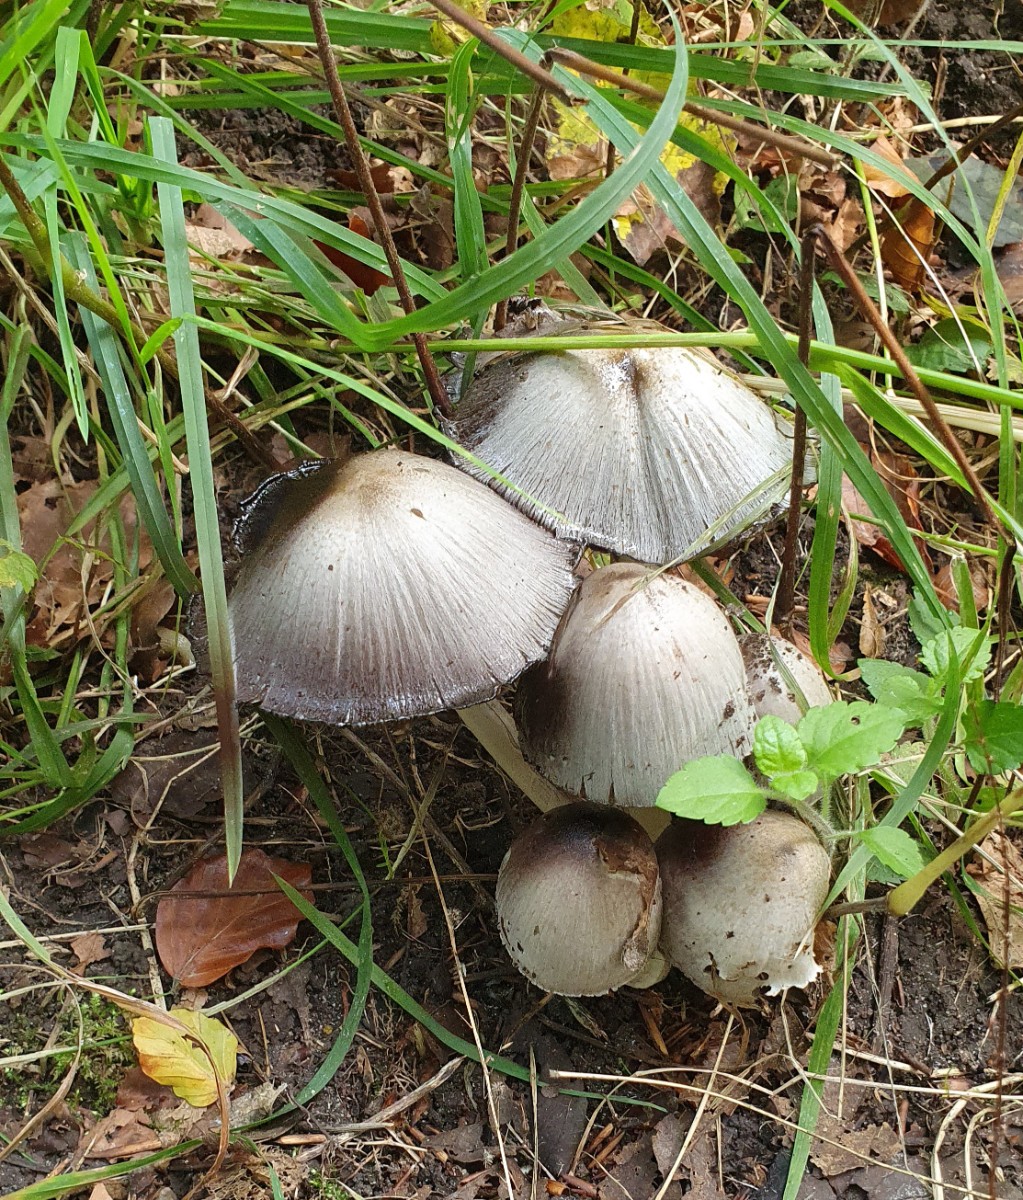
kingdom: Fungi
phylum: Basidiomycota
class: Agaricomycetes
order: Agaricales
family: Psathyrellaceae
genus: Coprinopsis
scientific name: Coprinopsis
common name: blækhat
